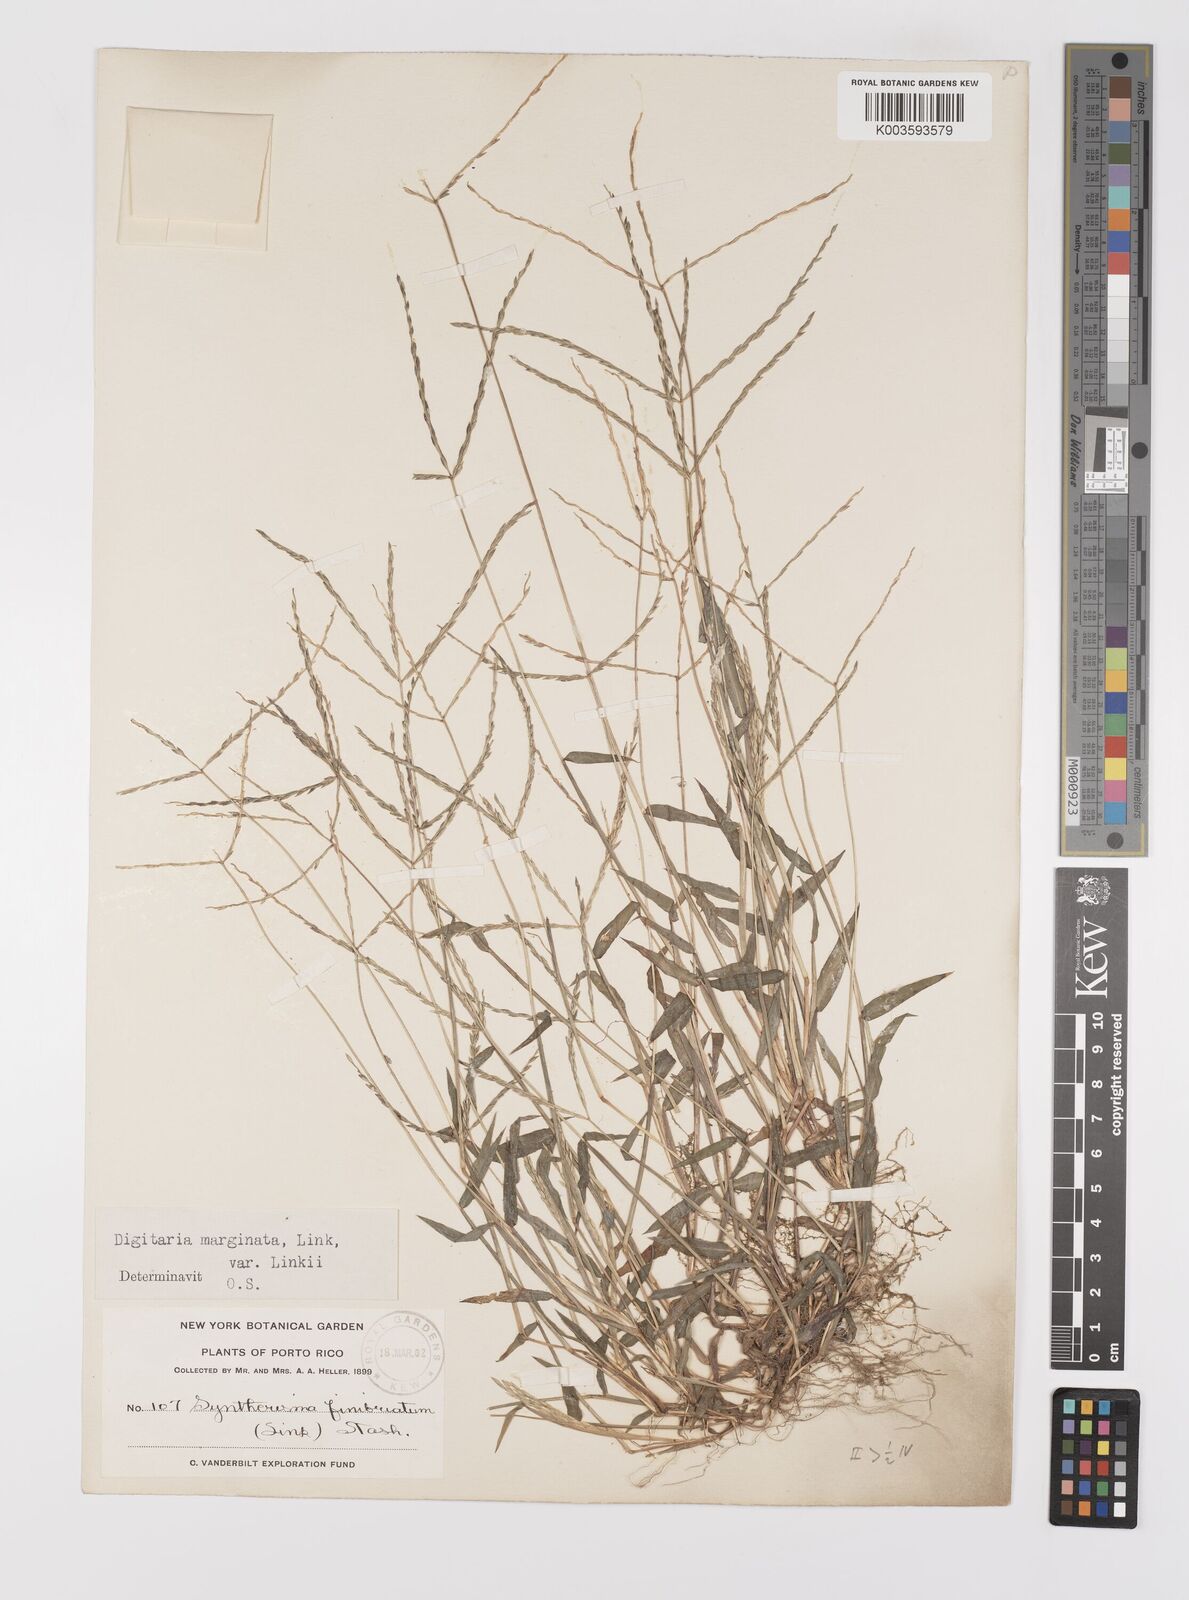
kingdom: Plantae
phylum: Tracheophyta
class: Liliopsida
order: Poales
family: Poaceae
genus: Digitaria
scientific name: Digitaria ciliaris
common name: Tropical finger-grass
